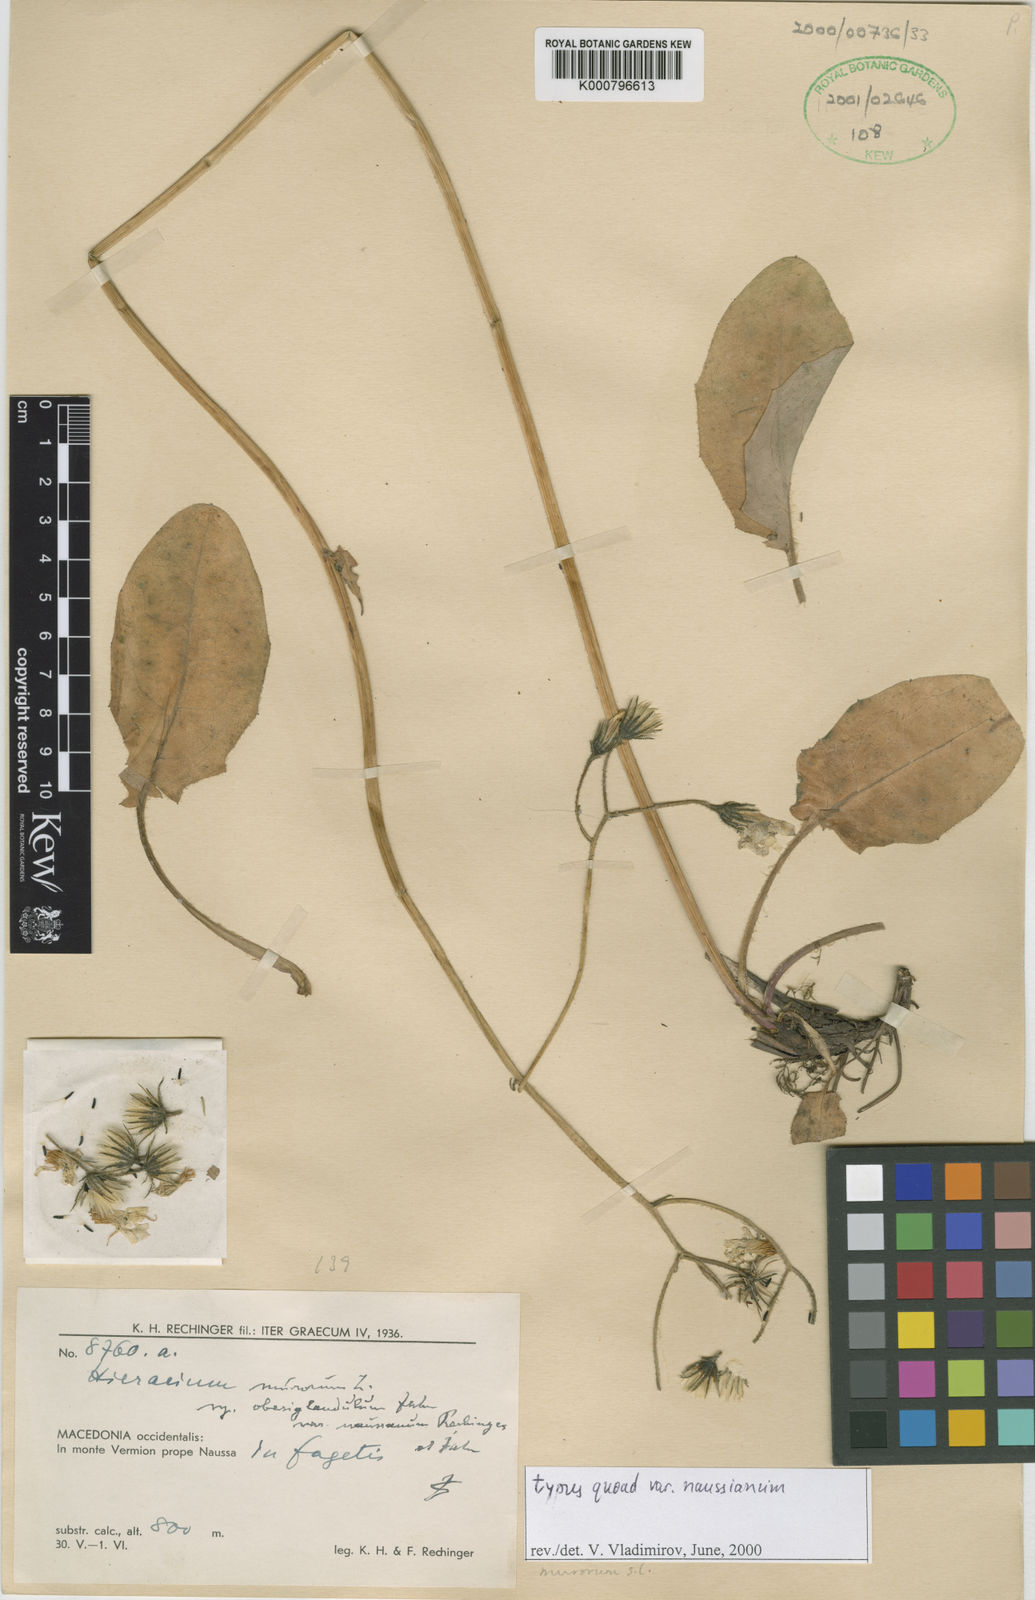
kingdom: Plantae
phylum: Tracheophyta
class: Magnoliopsida
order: Asterales
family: Asteraceae
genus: Hieracium
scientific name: Hieracium murorum
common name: Wall hawkweed
